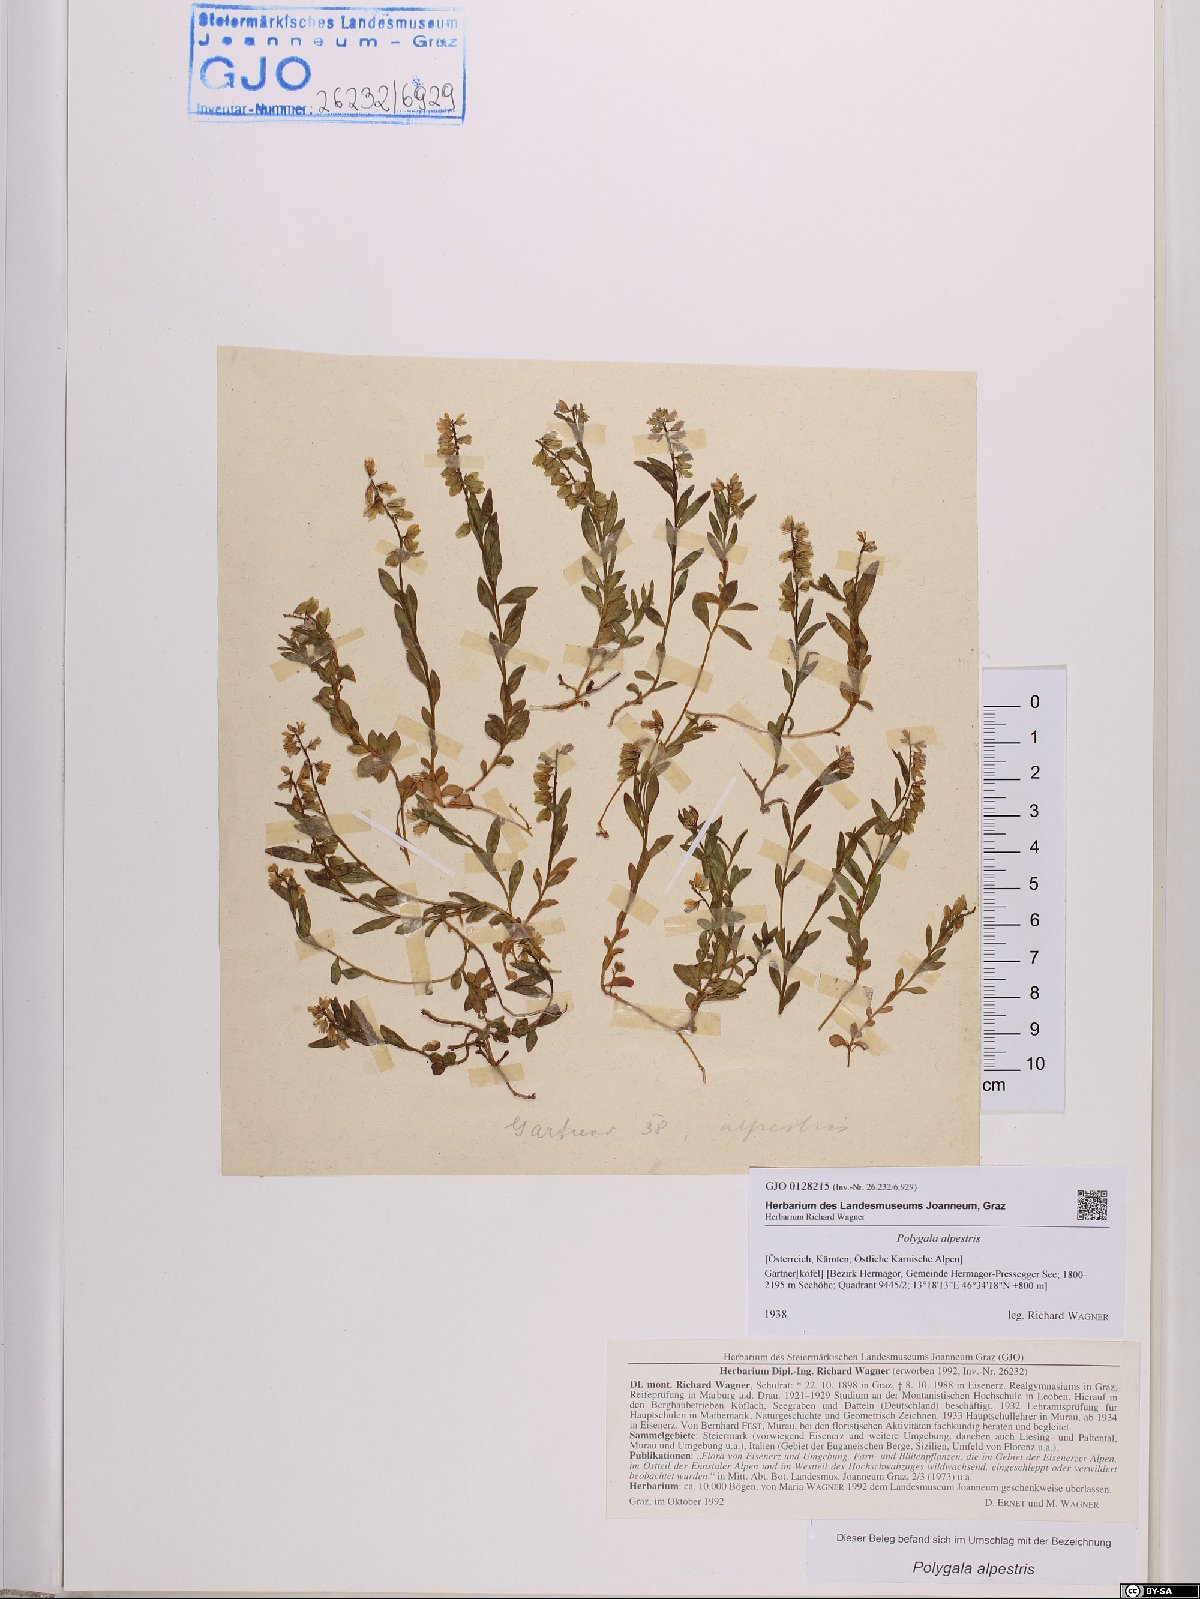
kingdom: Plantae
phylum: Tracheophyta
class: Magnoliopsida
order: Fabales
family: Polygalaceae
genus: Polygala
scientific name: Polygala alpestris
